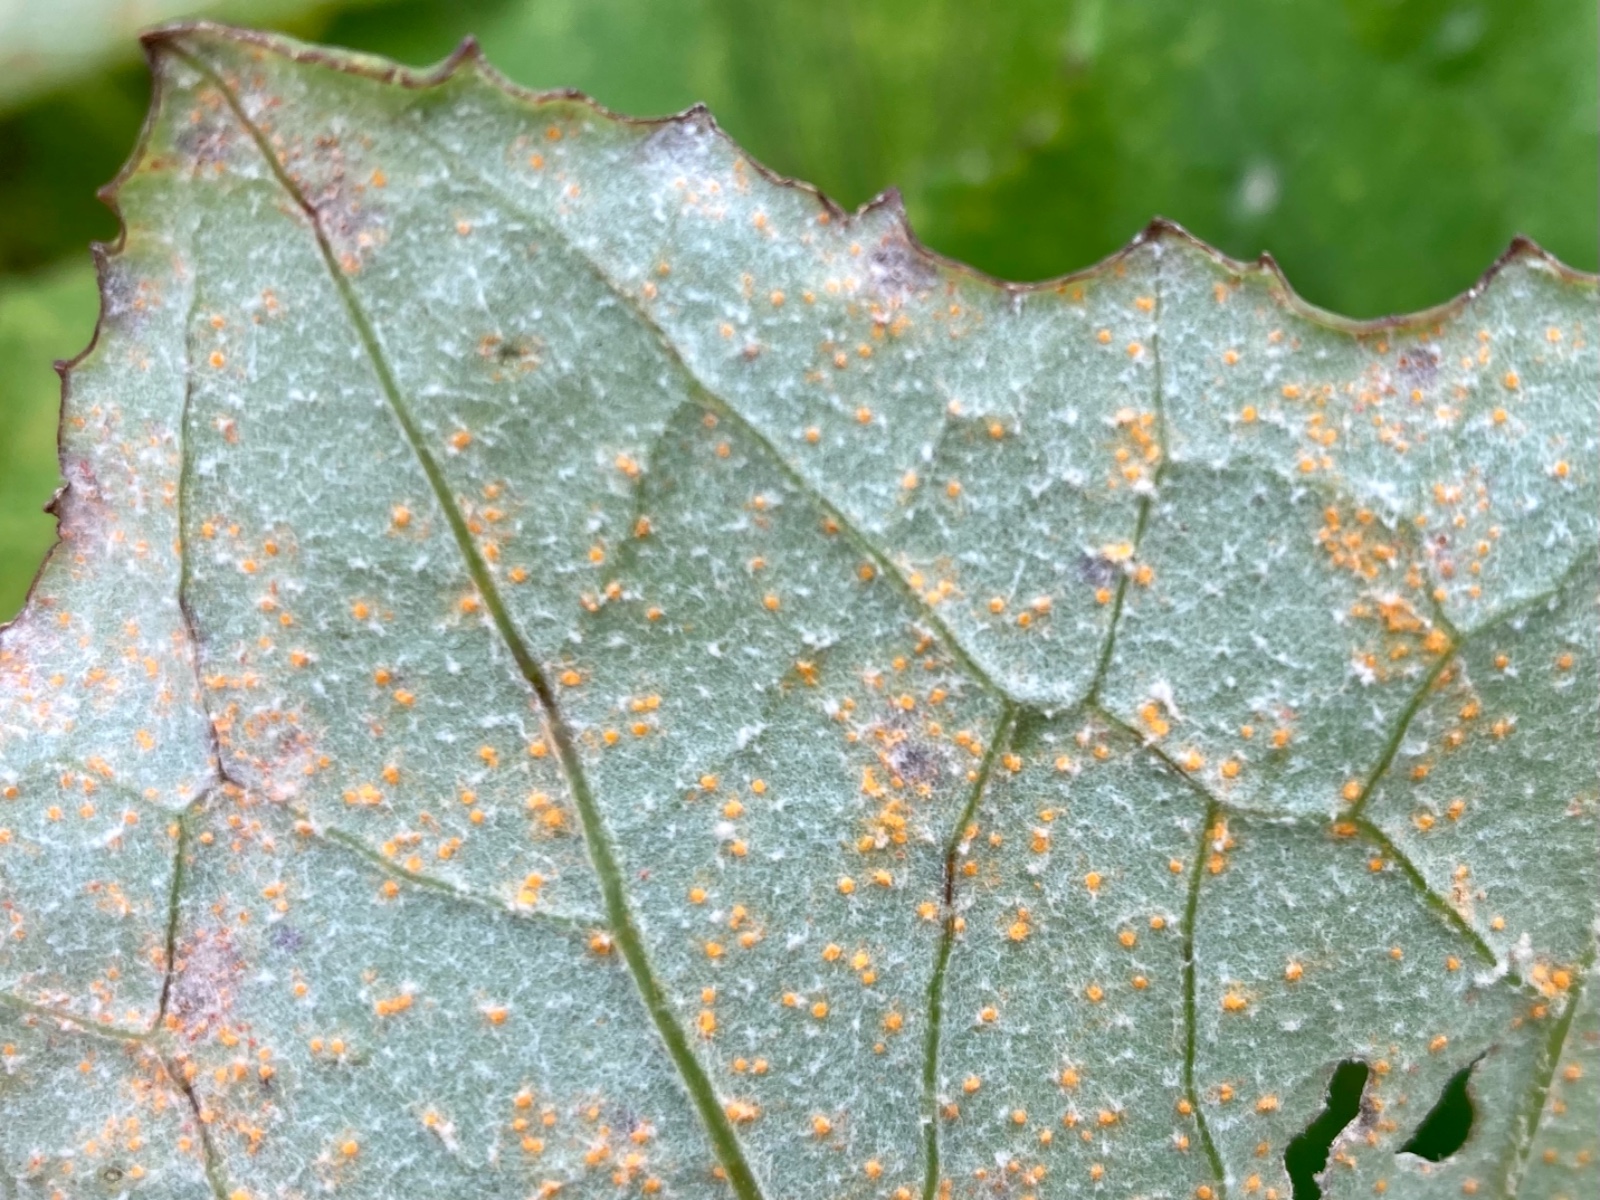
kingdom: Fungi
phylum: Basidiomycota
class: Pucciniomycetes
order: Pucciniales
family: Coleosporiaceae
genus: Coleosporium
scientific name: Coleosporium tussilaginis
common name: almindelig fyrrenålerust
